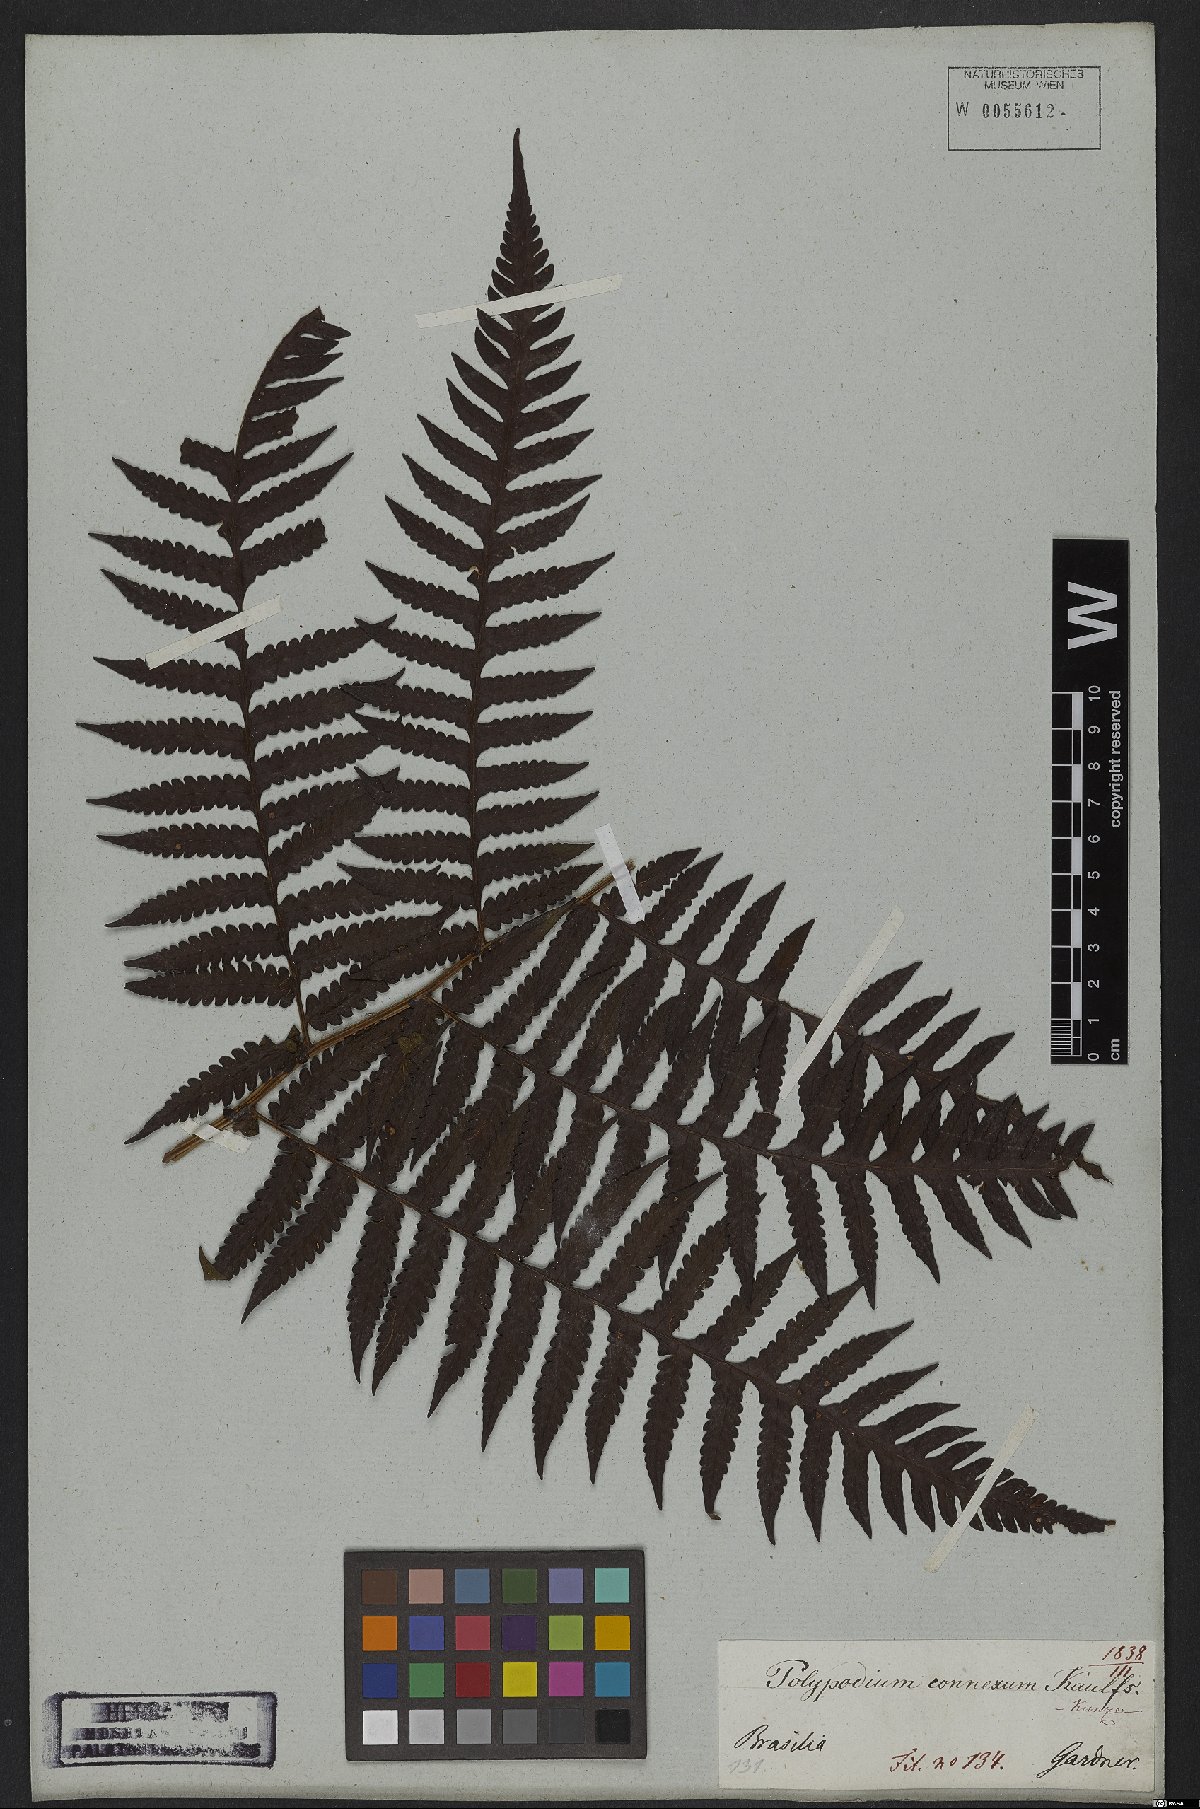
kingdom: Plantae
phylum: Tracheophyta
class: Polypodiopsida
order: Polypodiales
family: Dryopteridaceae
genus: Megalastrum
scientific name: Megalastrum connexum
